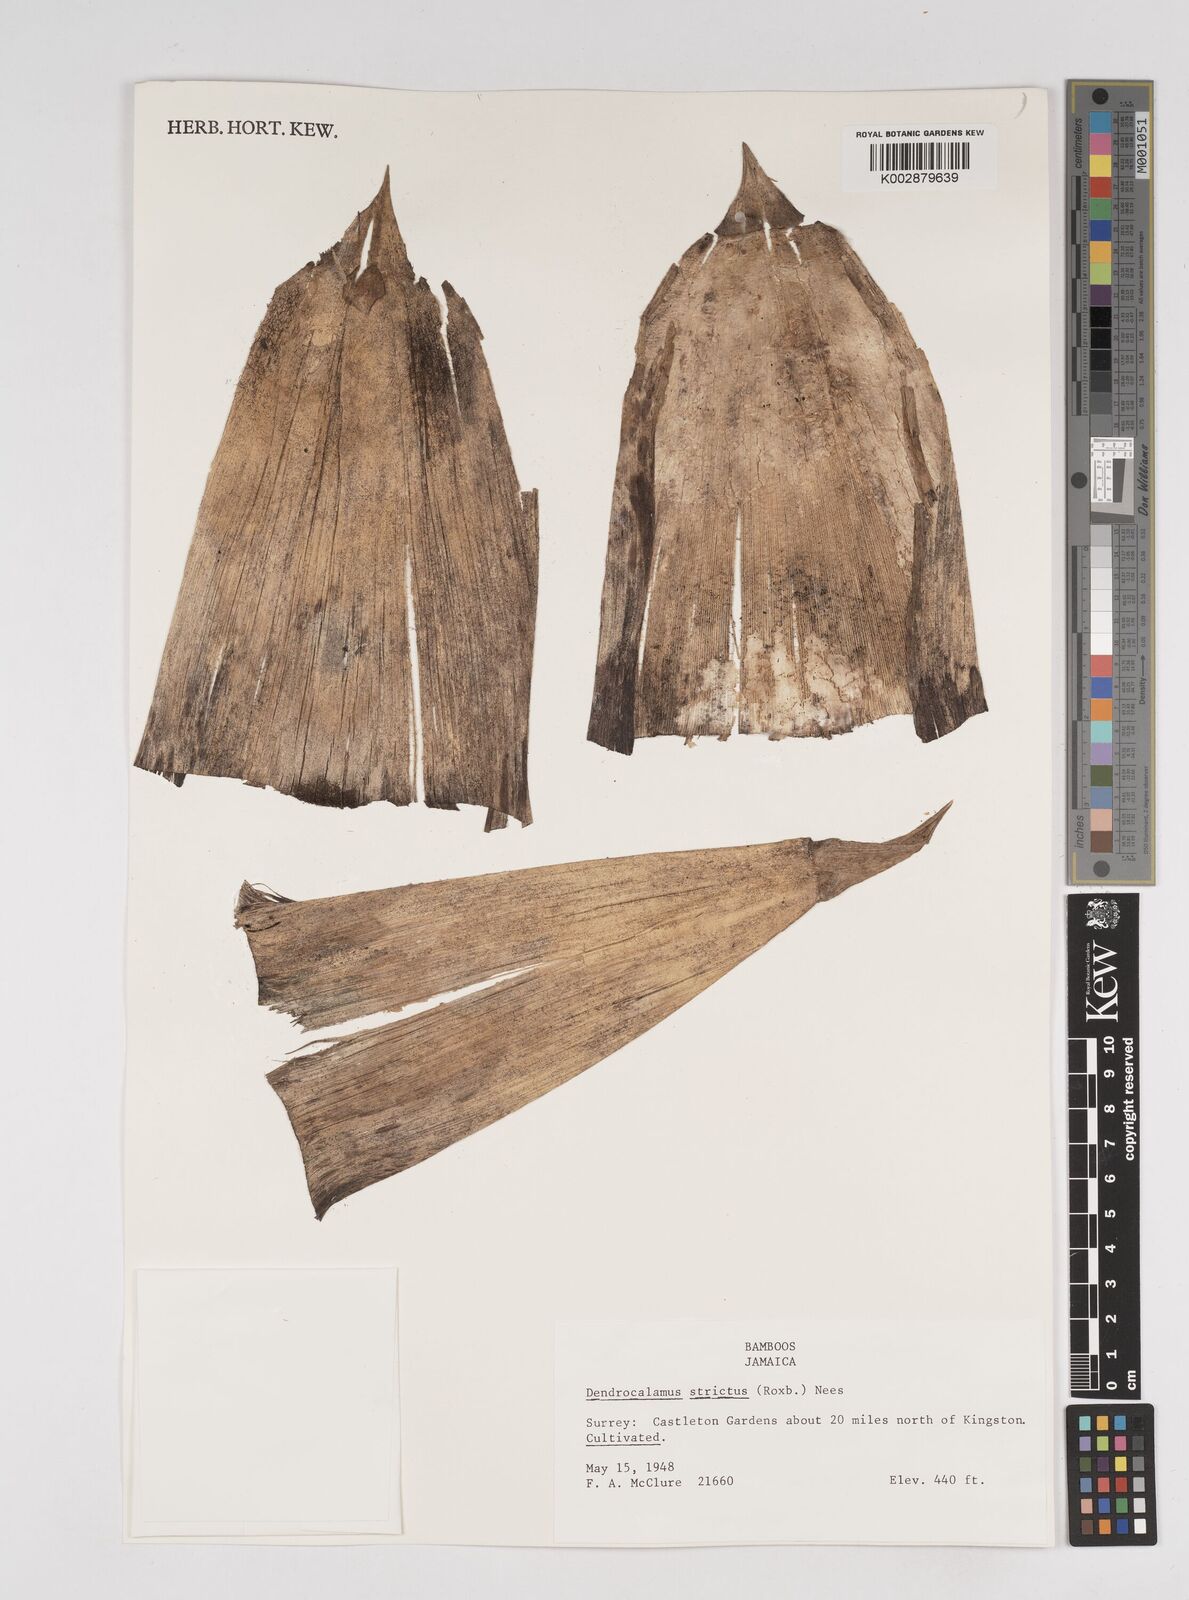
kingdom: Plantae
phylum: Tracheophyta
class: Liliopsida
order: Poales
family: Poaceae
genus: Dendrocalamus
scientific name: Dendrocalamus strictus
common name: Male bamboo
